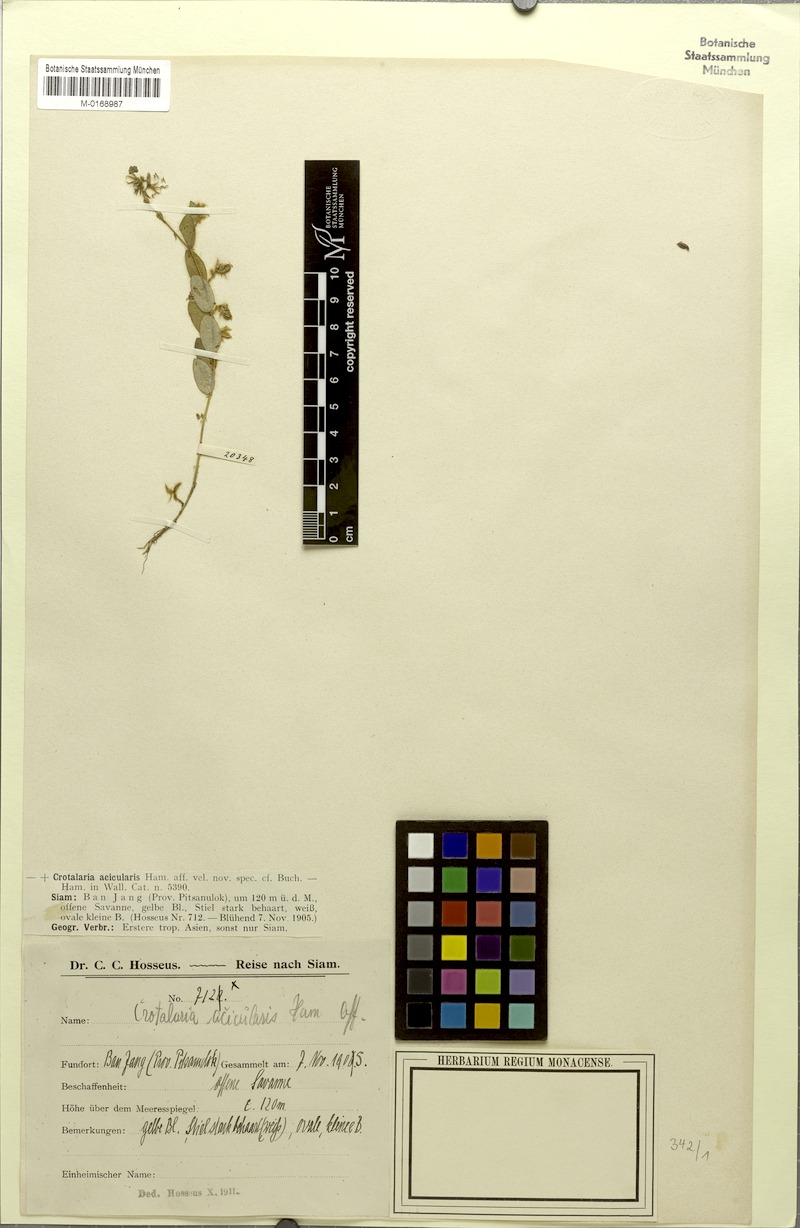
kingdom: Plantae
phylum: Tracheophyta
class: Magnoliopsida
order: Fabales
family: Fabaceae
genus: Crotalaria
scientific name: Crotalaria acicularis
